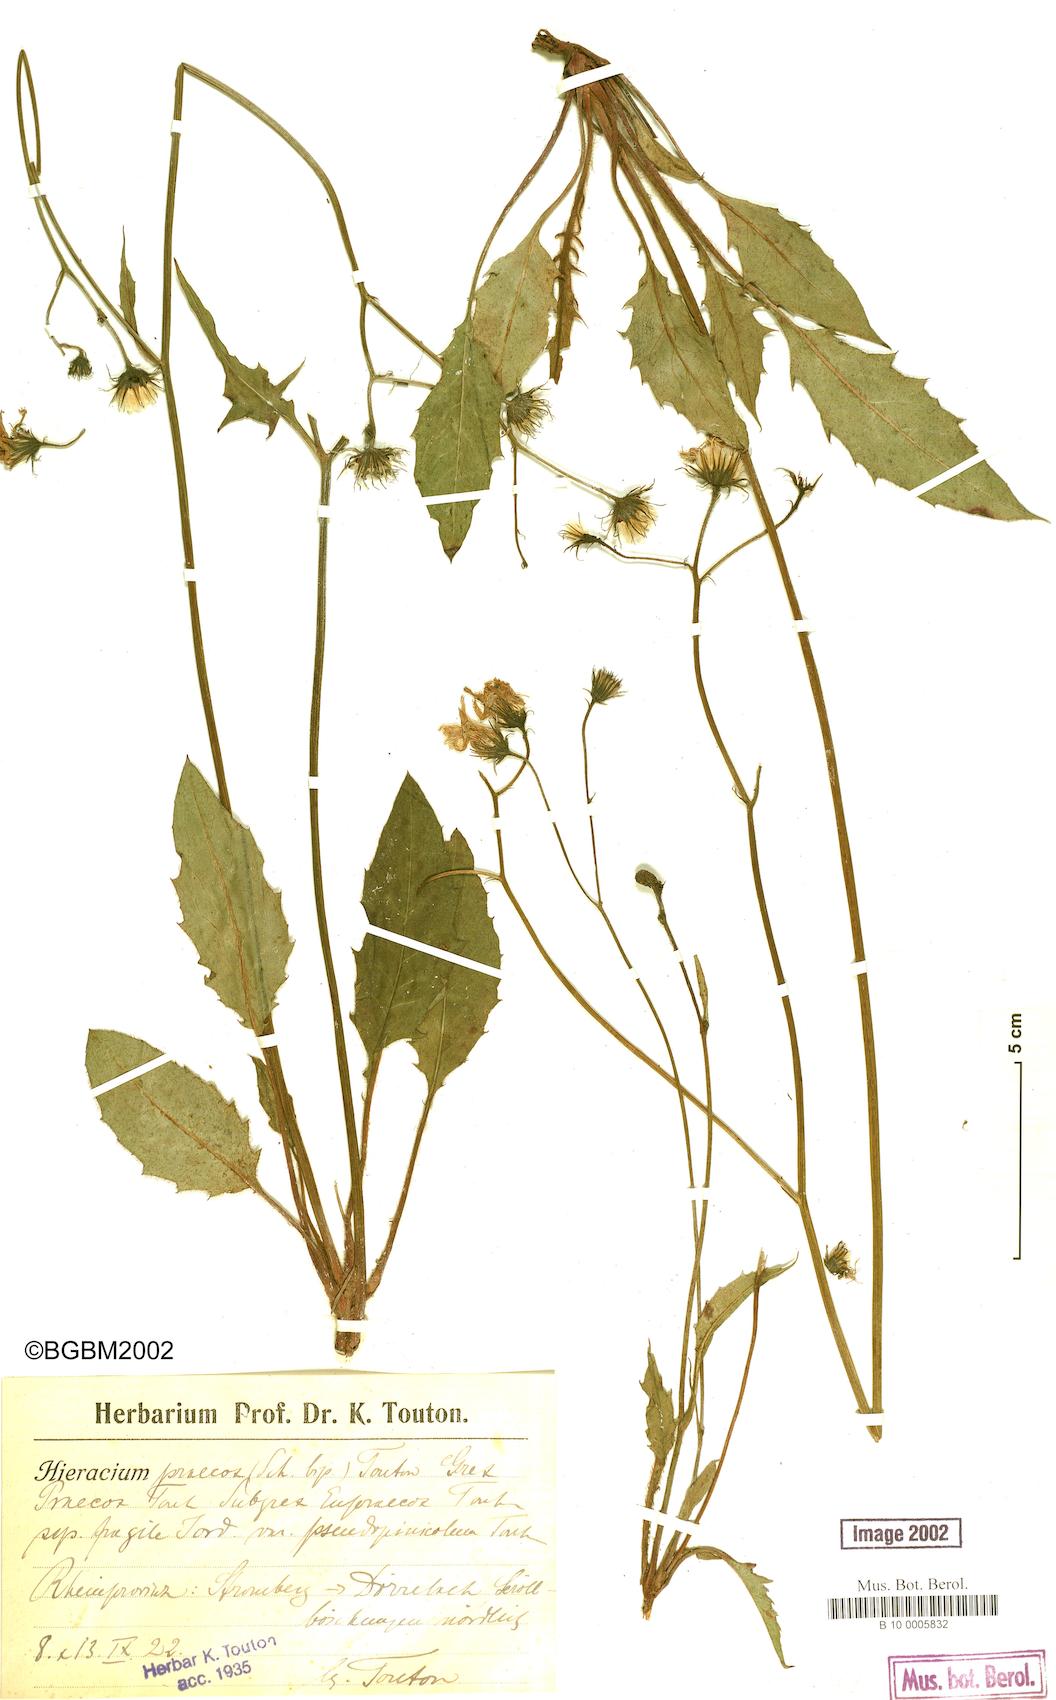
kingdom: Plantae
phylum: Tracheophyta
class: Magnoliopsida
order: Asterales
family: Asteraceae
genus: Hieracium
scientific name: Hieracium praecox
